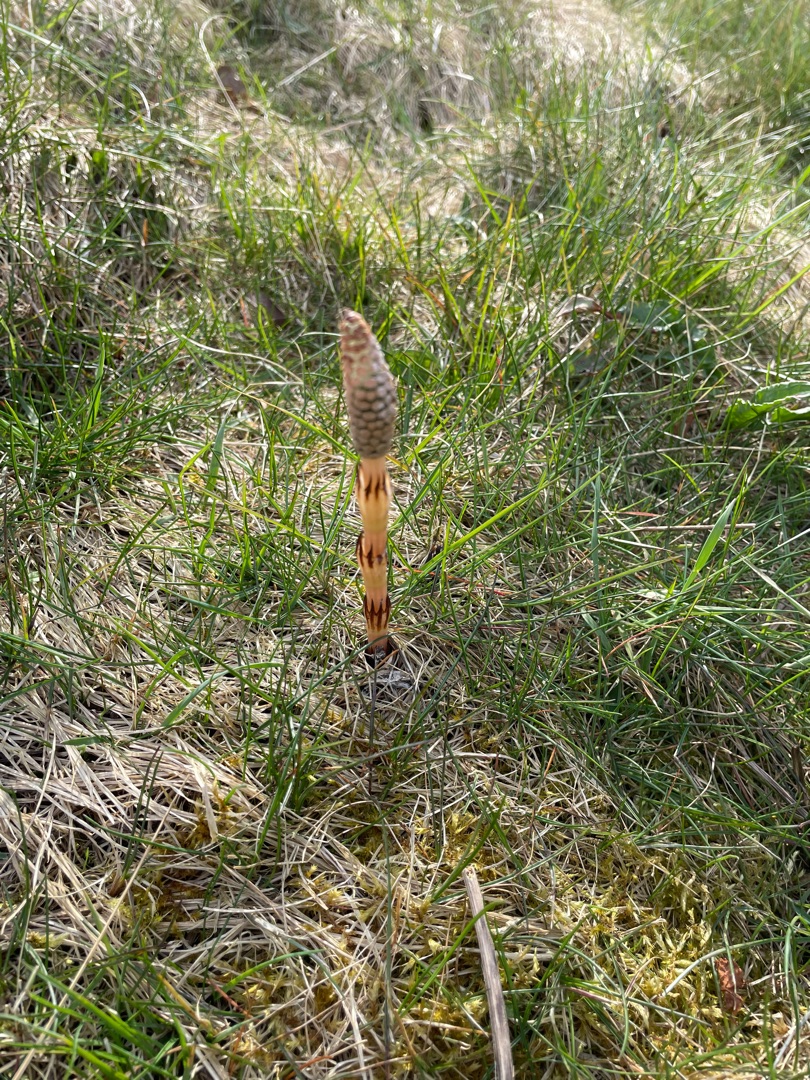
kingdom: Plantae
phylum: Tracheophyta
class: Polypodiopsida
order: Equisetales
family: Equisetaceae
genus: Equisetum
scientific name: Equisetum arvense
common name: Ager-padderok
